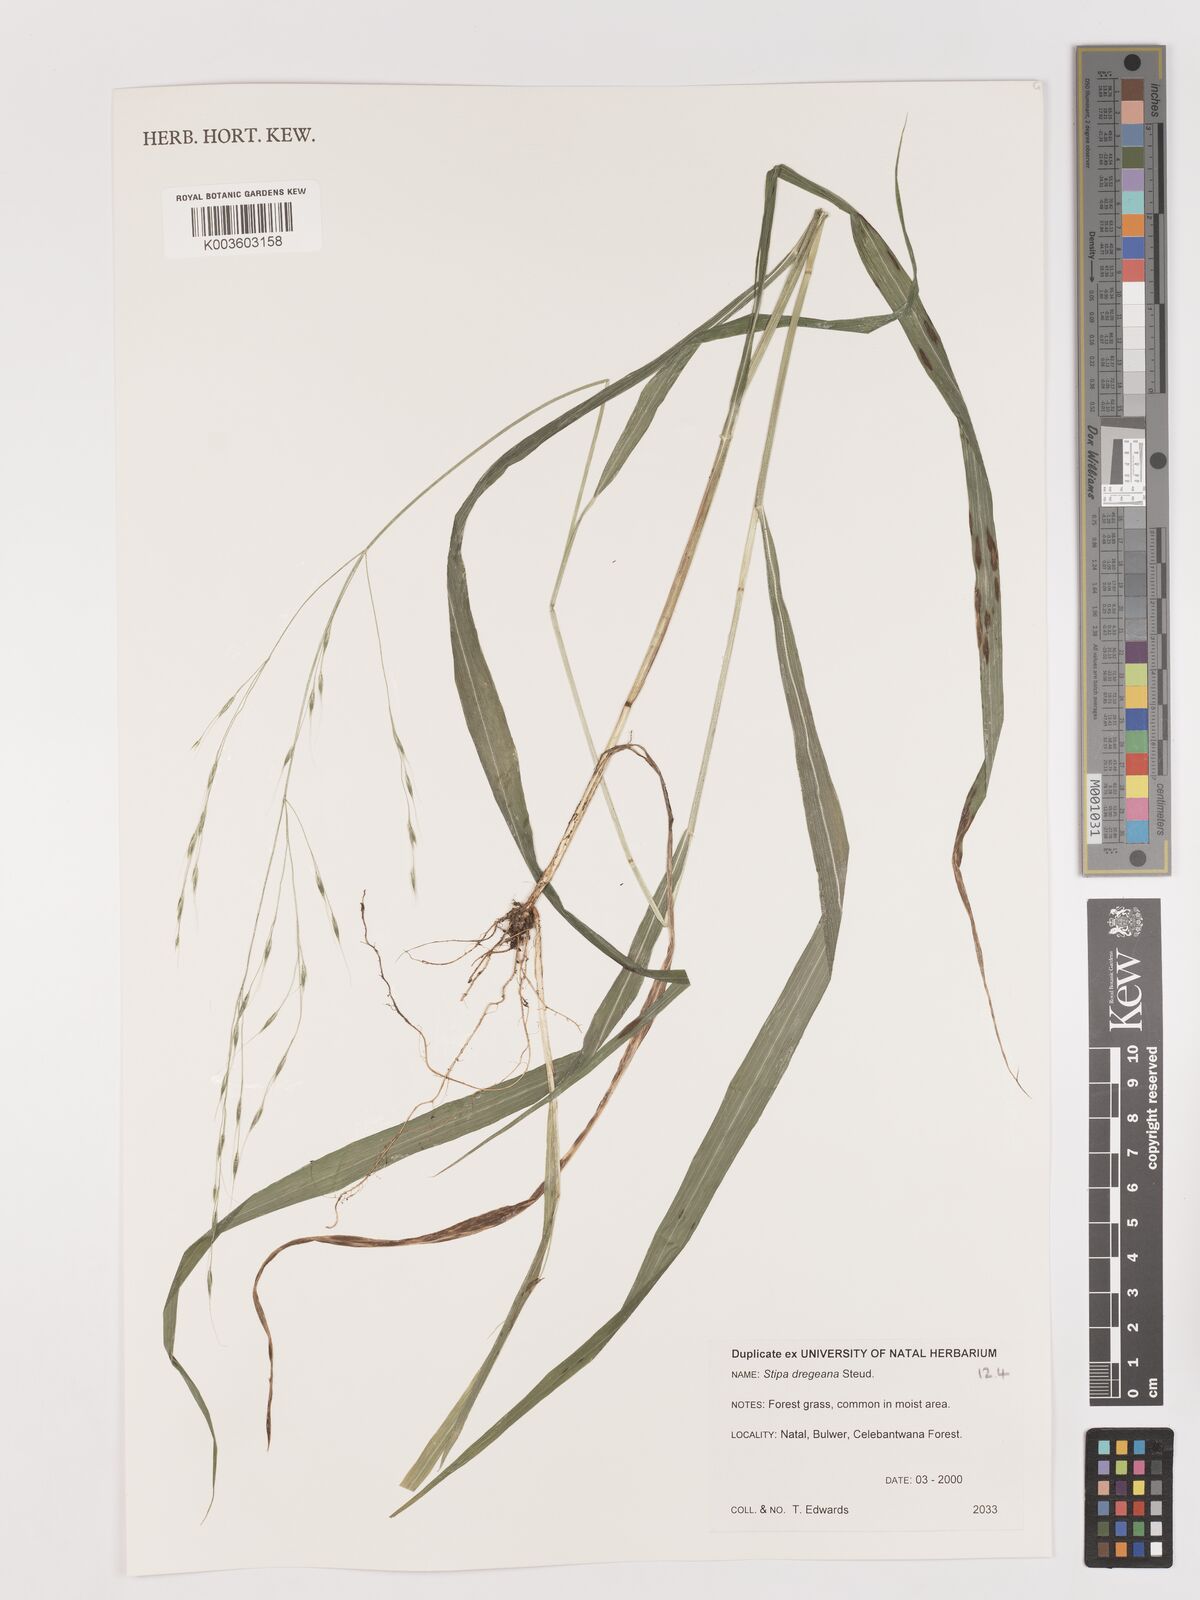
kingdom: Plantae
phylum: Tracheophyta
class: Liliopsida
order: Poales
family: Poaceae
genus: Stipa
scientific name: Stipa dregeana
